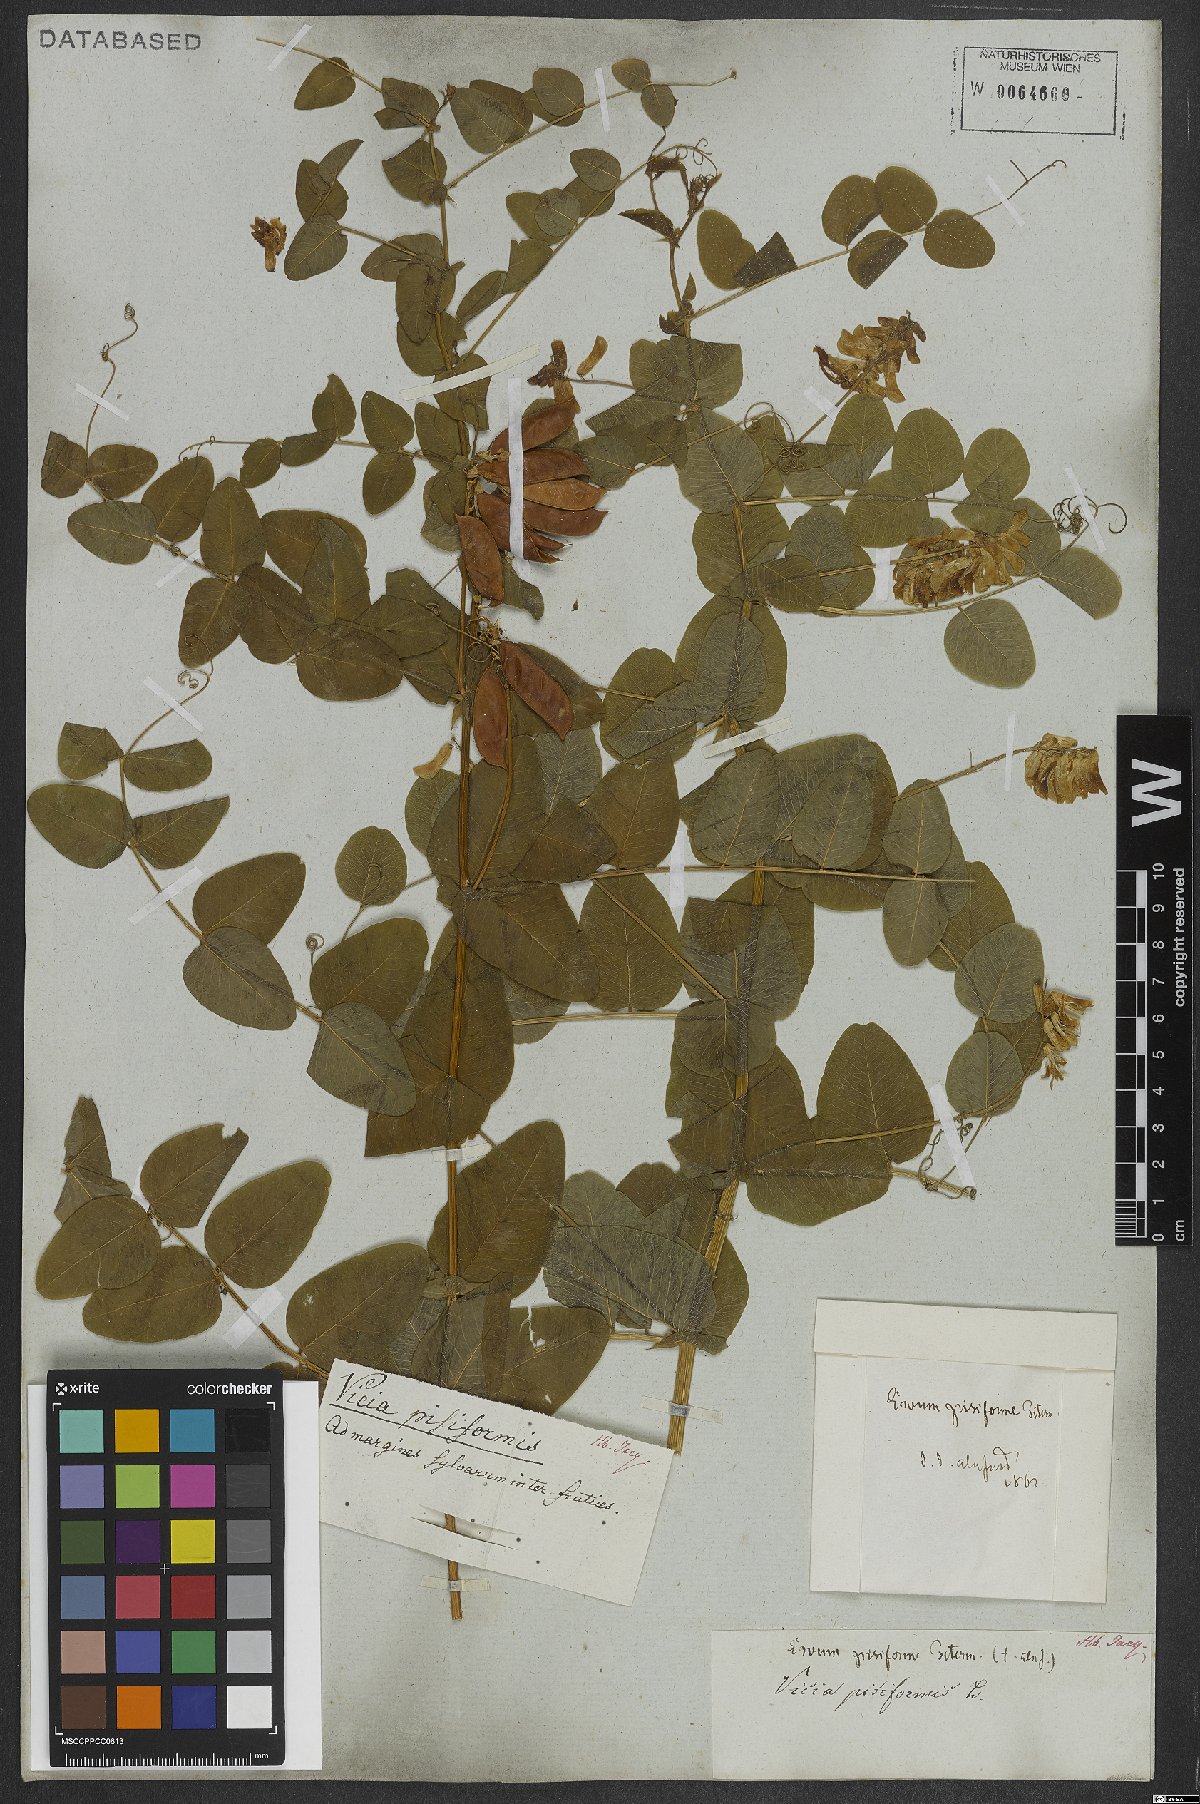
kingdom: Plantae
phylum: Tracheophyta
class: Magnoliopsida
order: Fabales
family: Fabaceae
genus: Vicia
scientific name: Vicia pisiformis
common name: Pale-flower vetch
